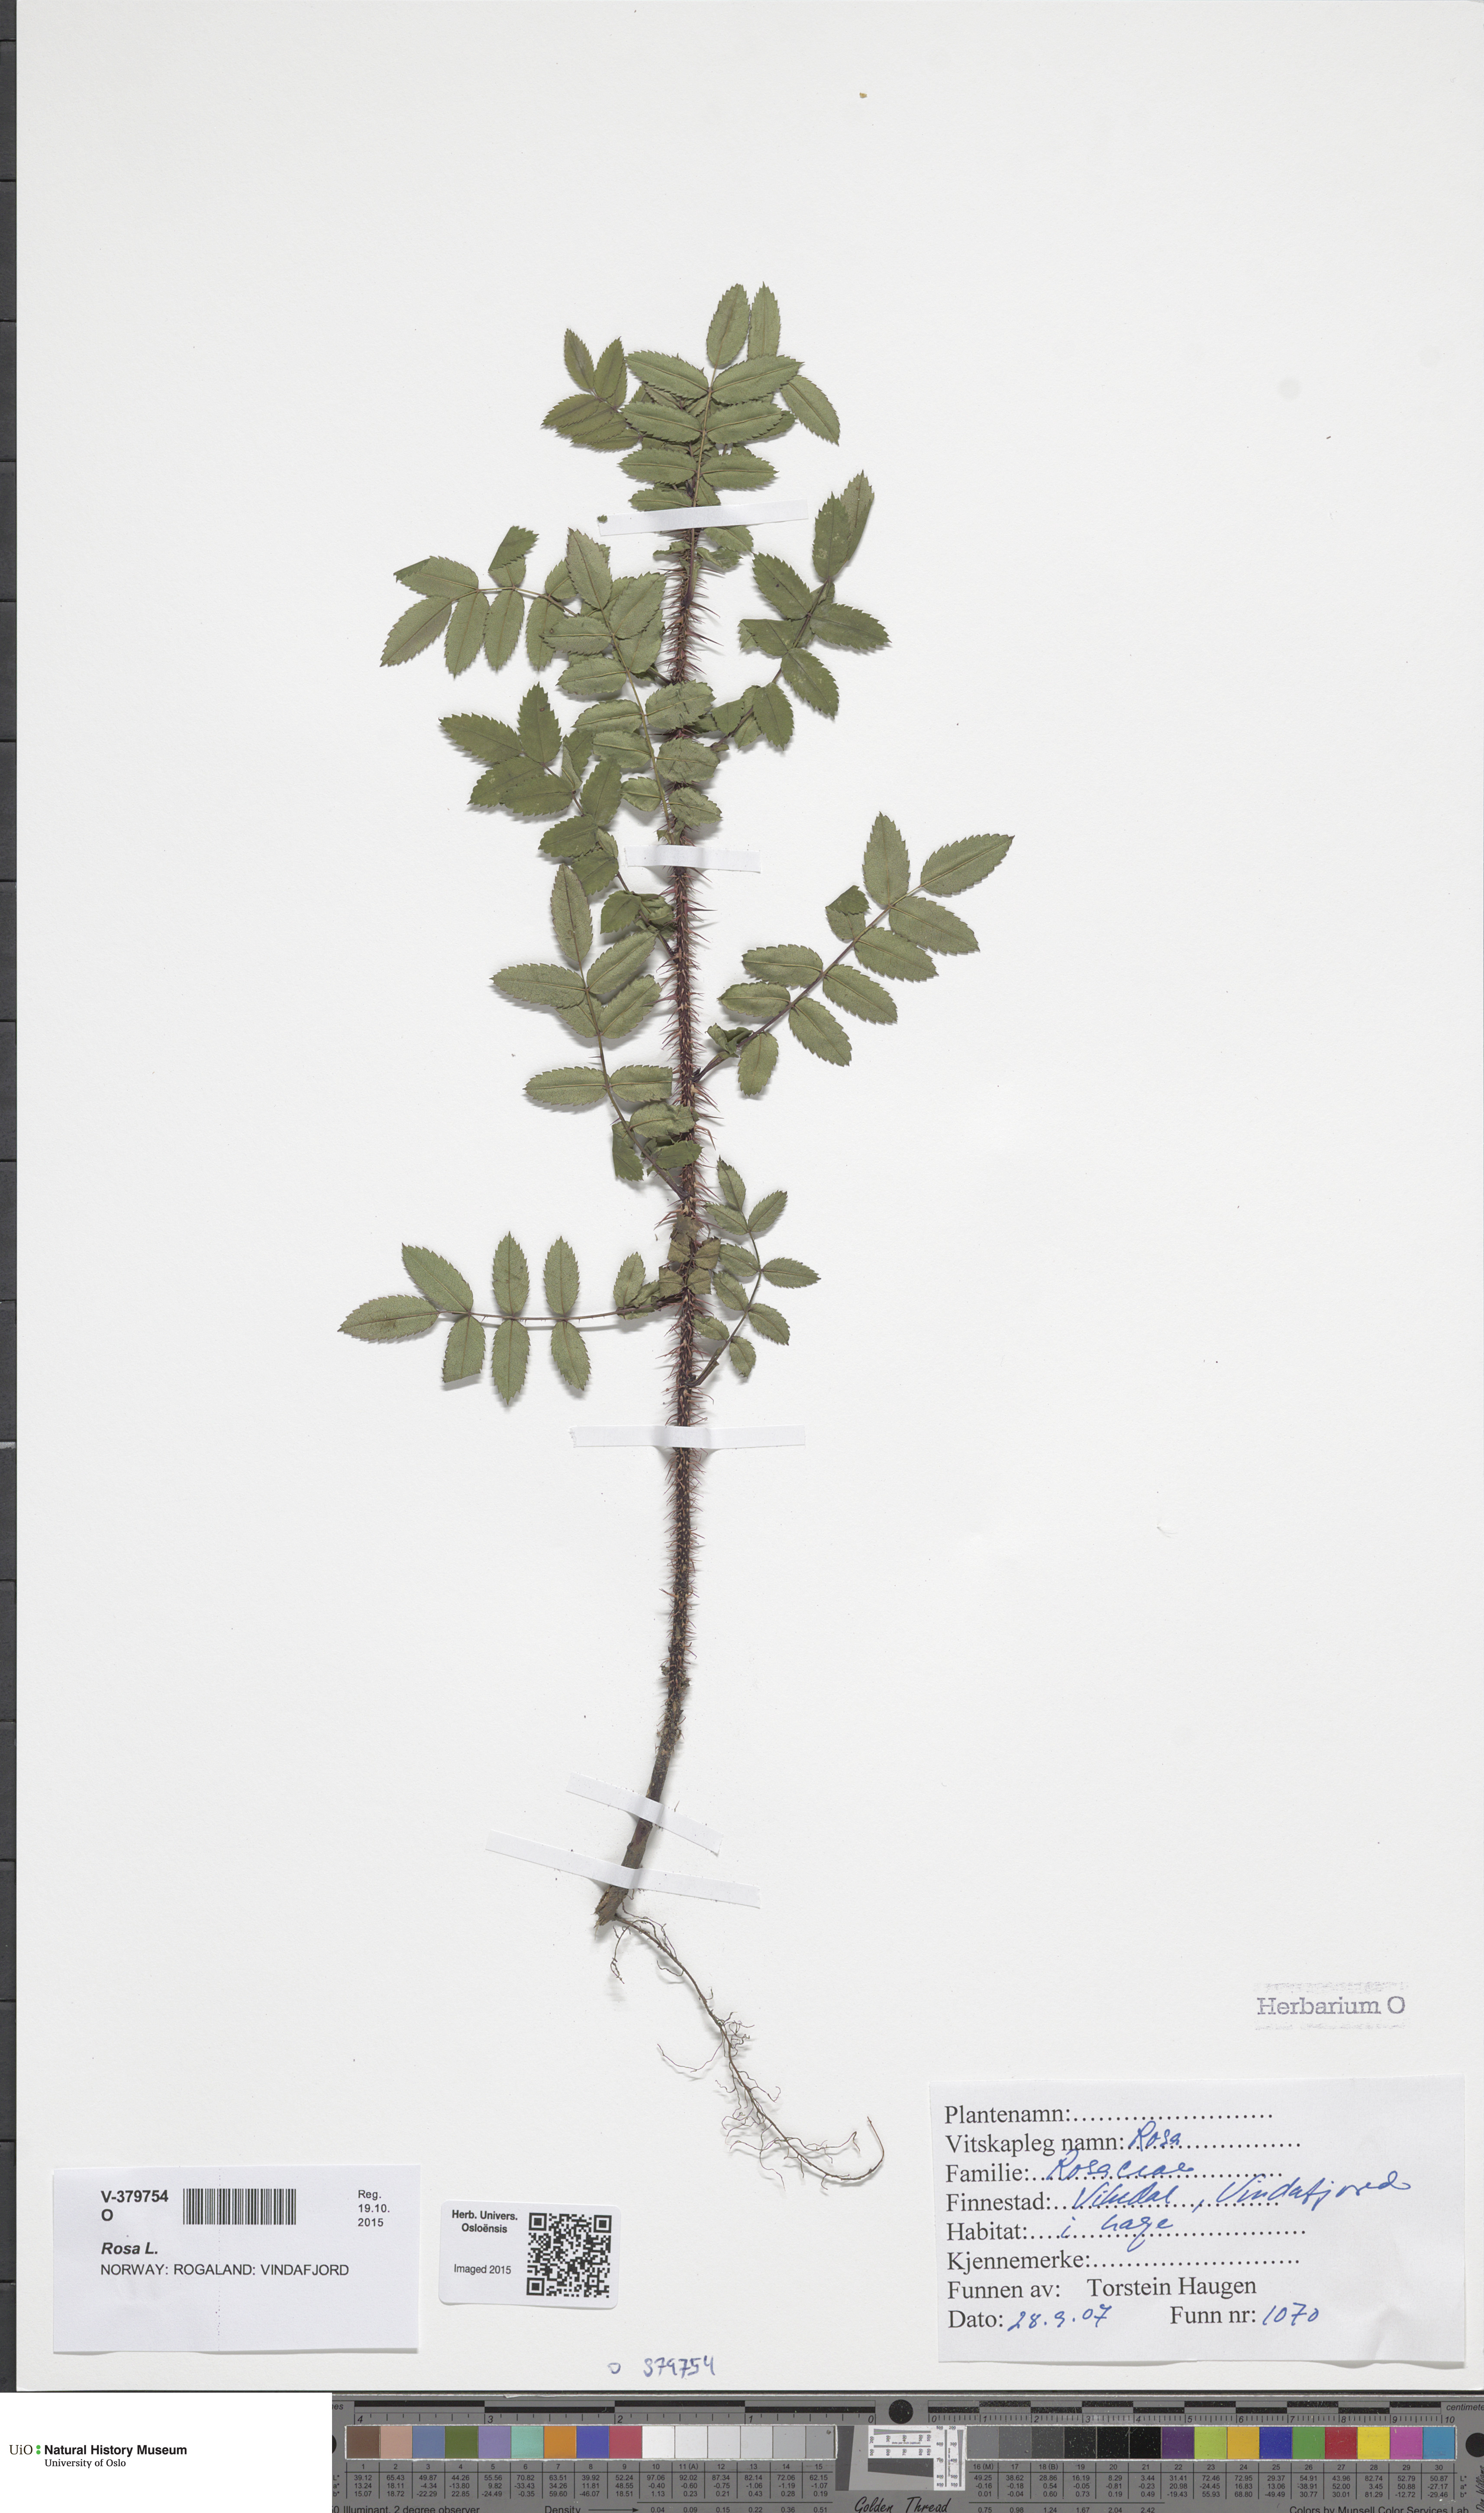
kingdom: Plantae
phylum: Tracheophyta
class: Magnoliopsida
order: Rosales
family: Rosaceae
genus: Rosa
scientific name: Rosa
